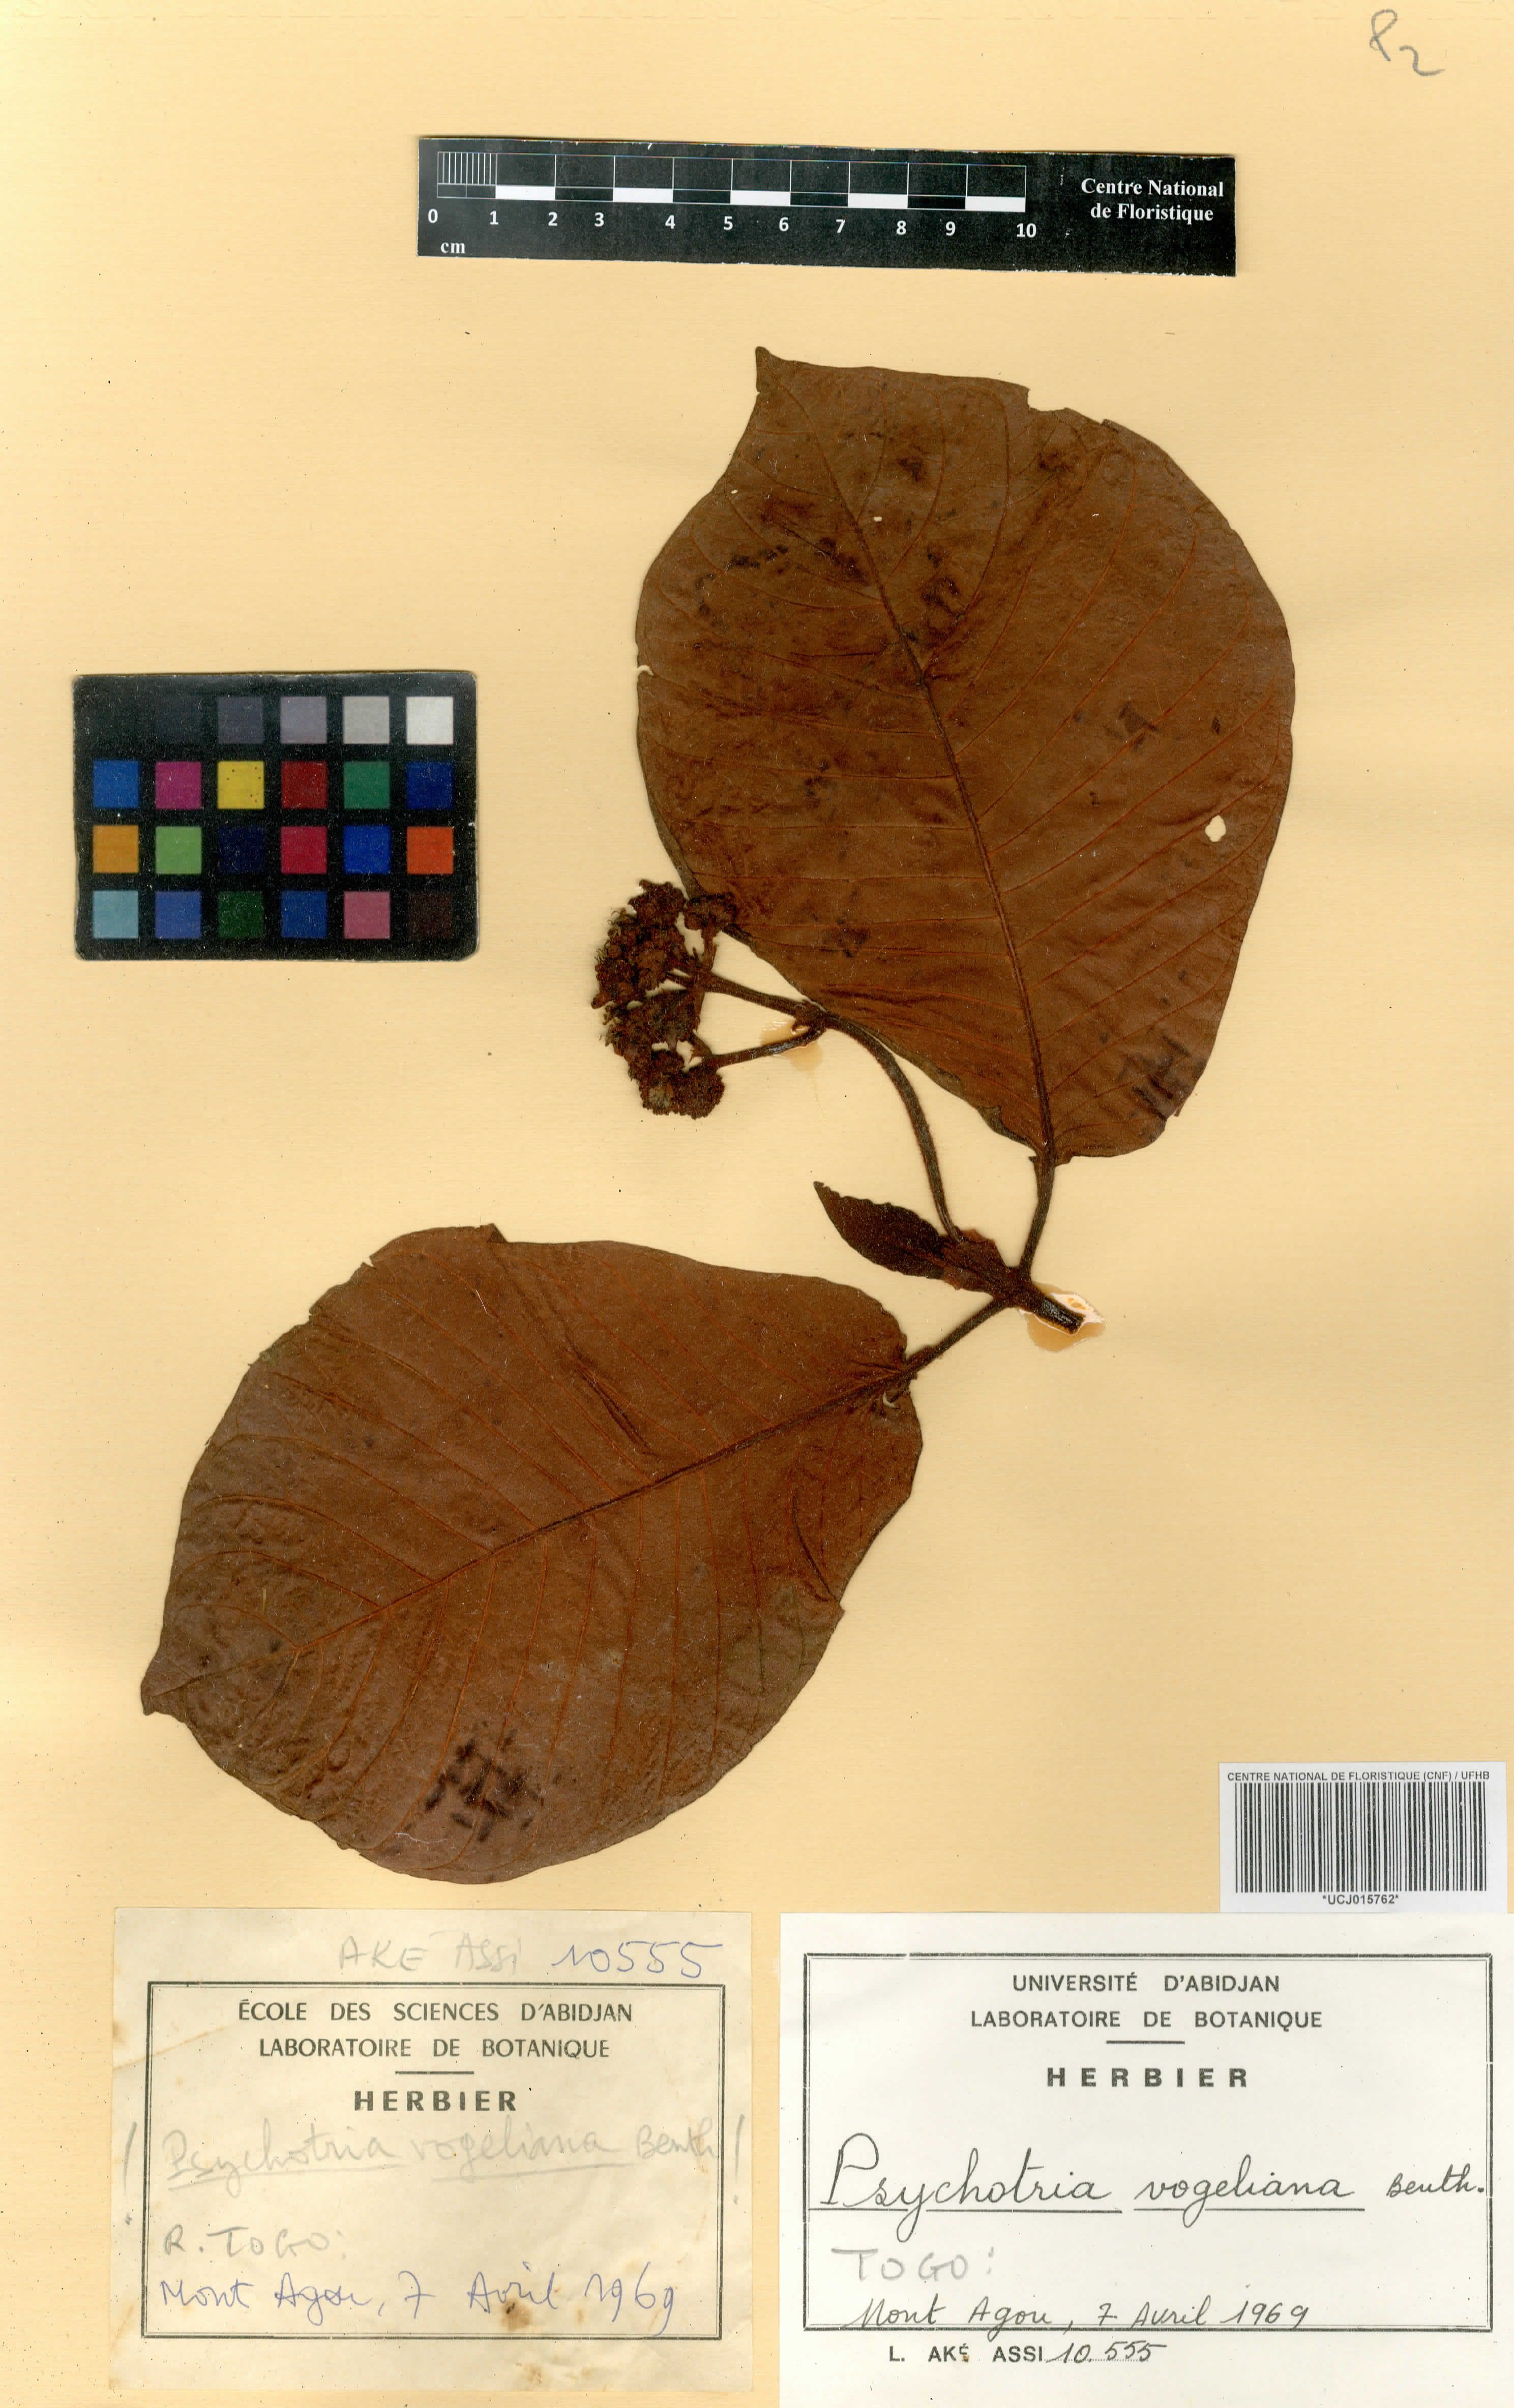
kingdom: Plantae
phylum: Tracheophyta
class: Magnoliopsida
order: Gentianales
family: Rubiaceae
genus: Psychotria
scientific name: Psychotria vogeliana
